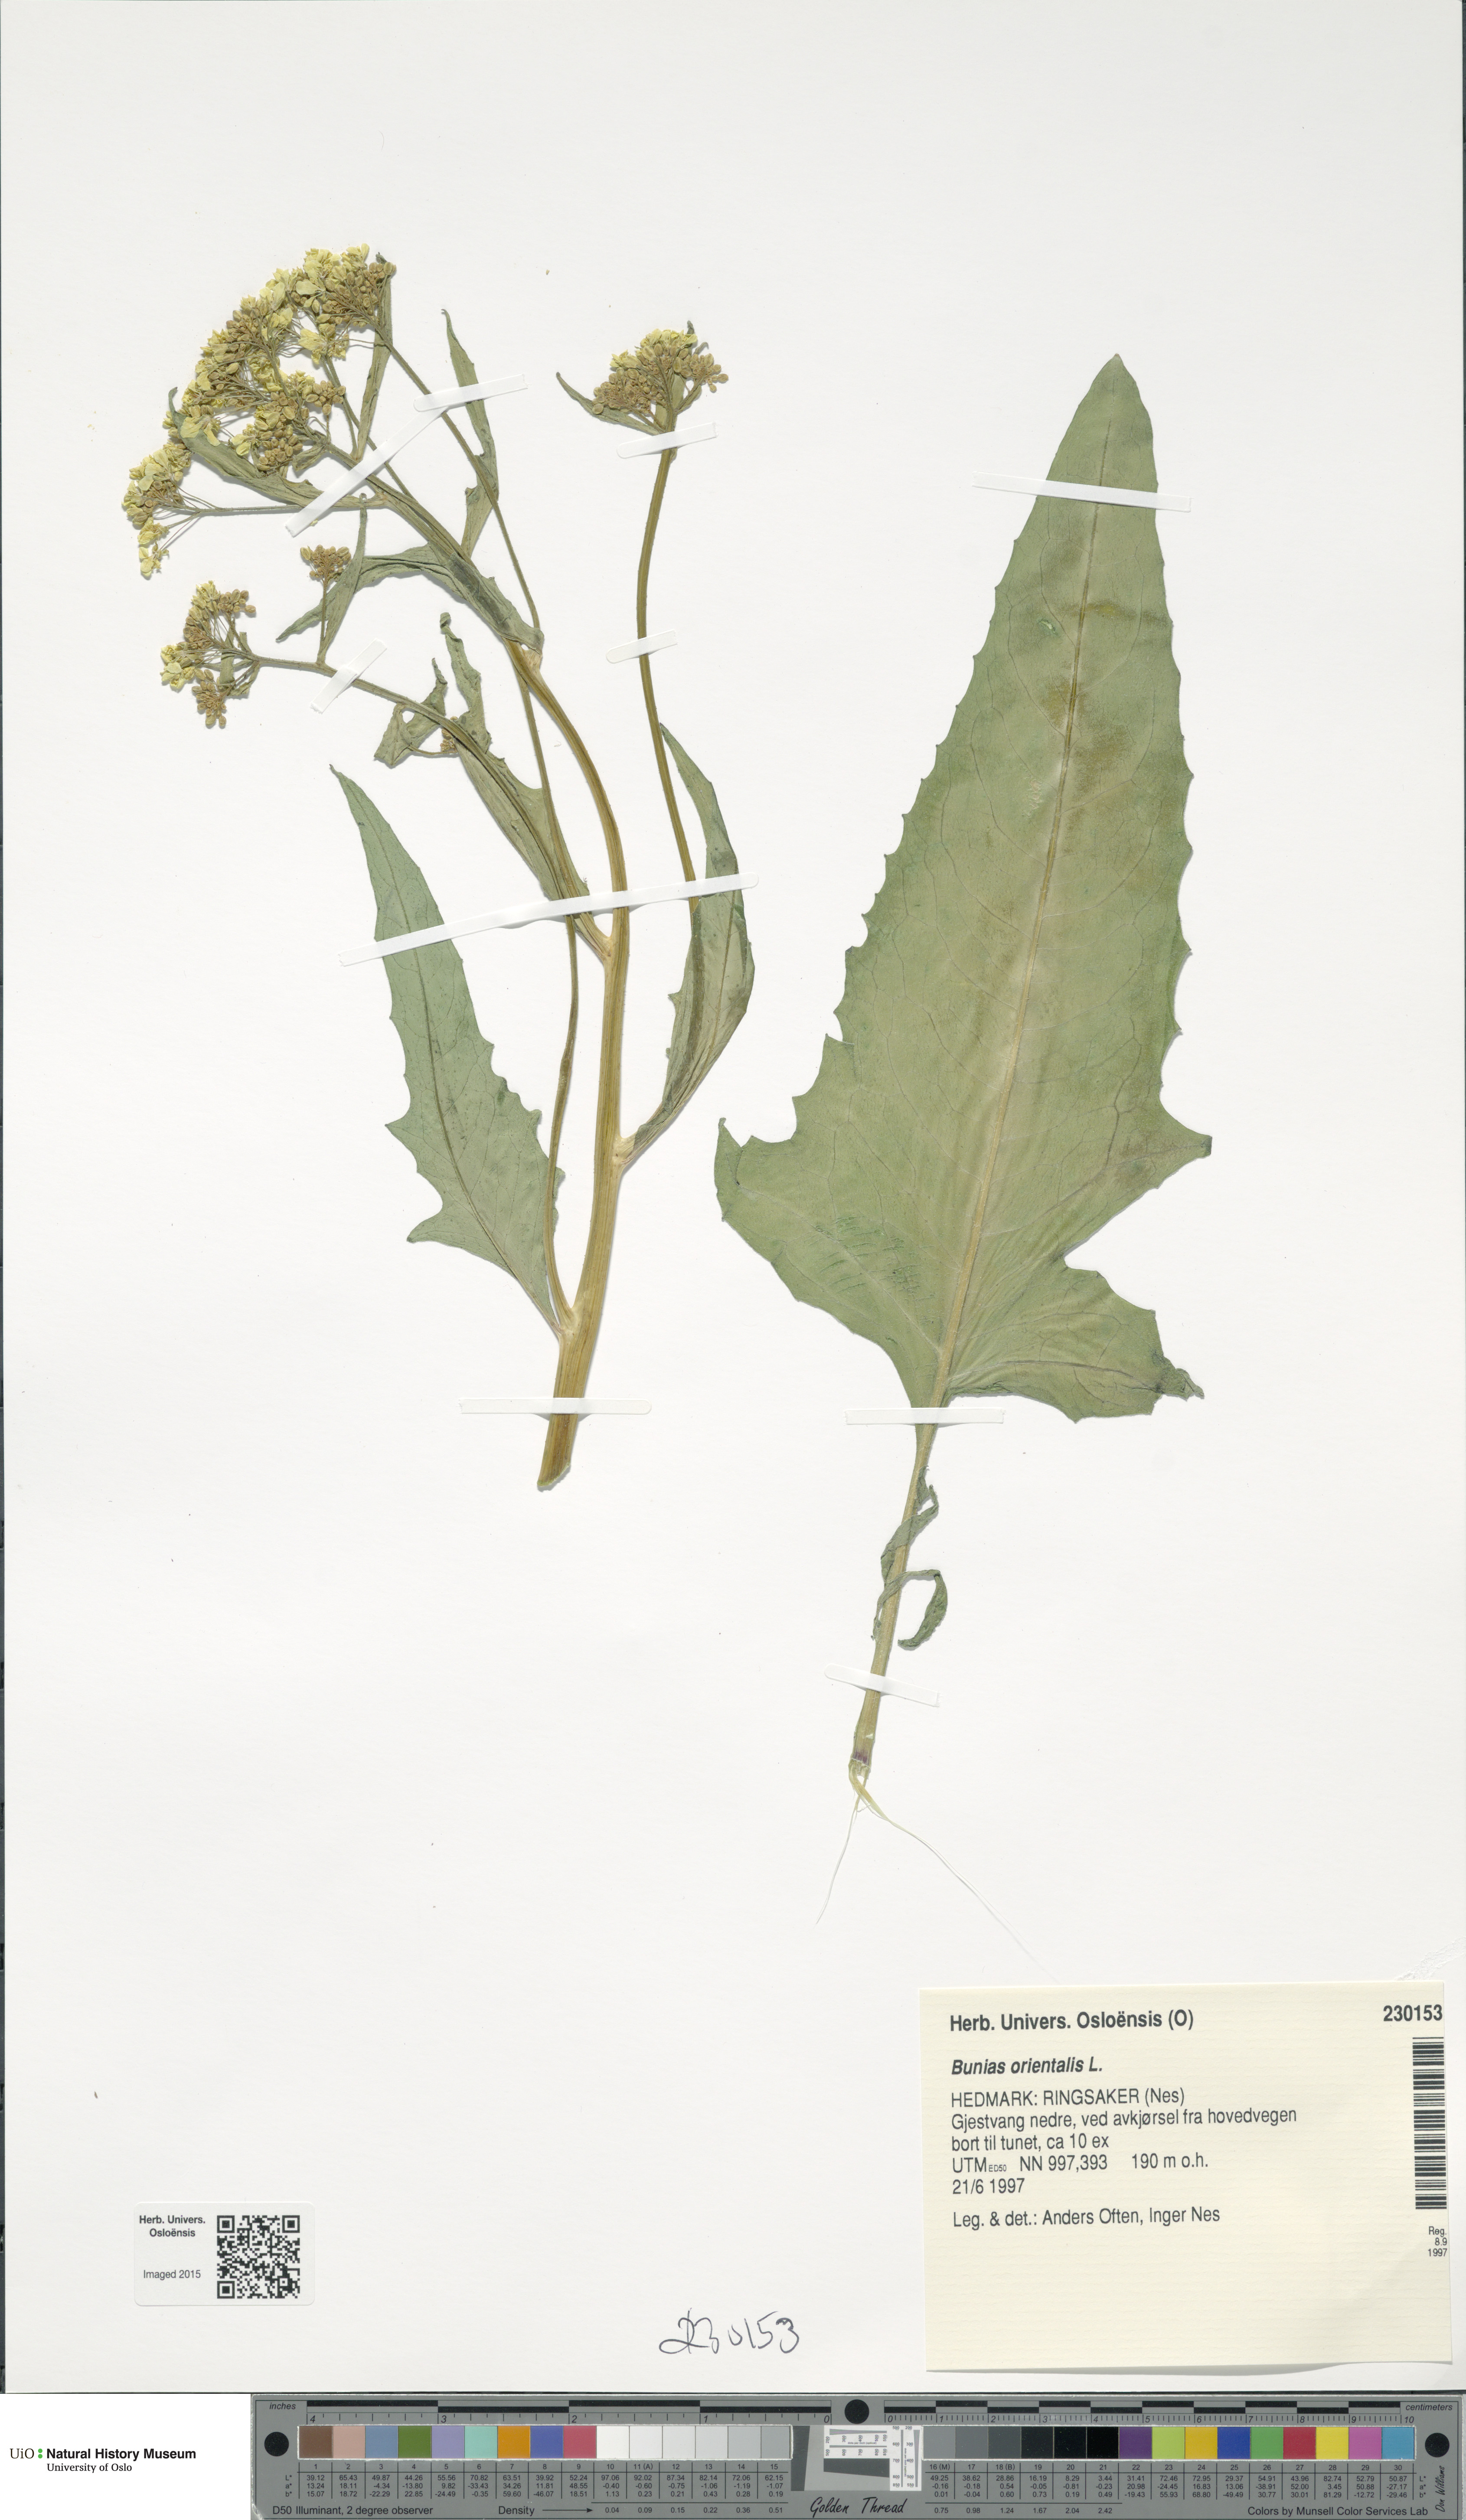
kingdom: Plantae
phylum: Tracheophyta
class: Magnoliopsida
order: Brassicales
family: Brassicaceae
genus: Bunias
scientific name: Bunias orientalis
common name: Warty-cabbage
